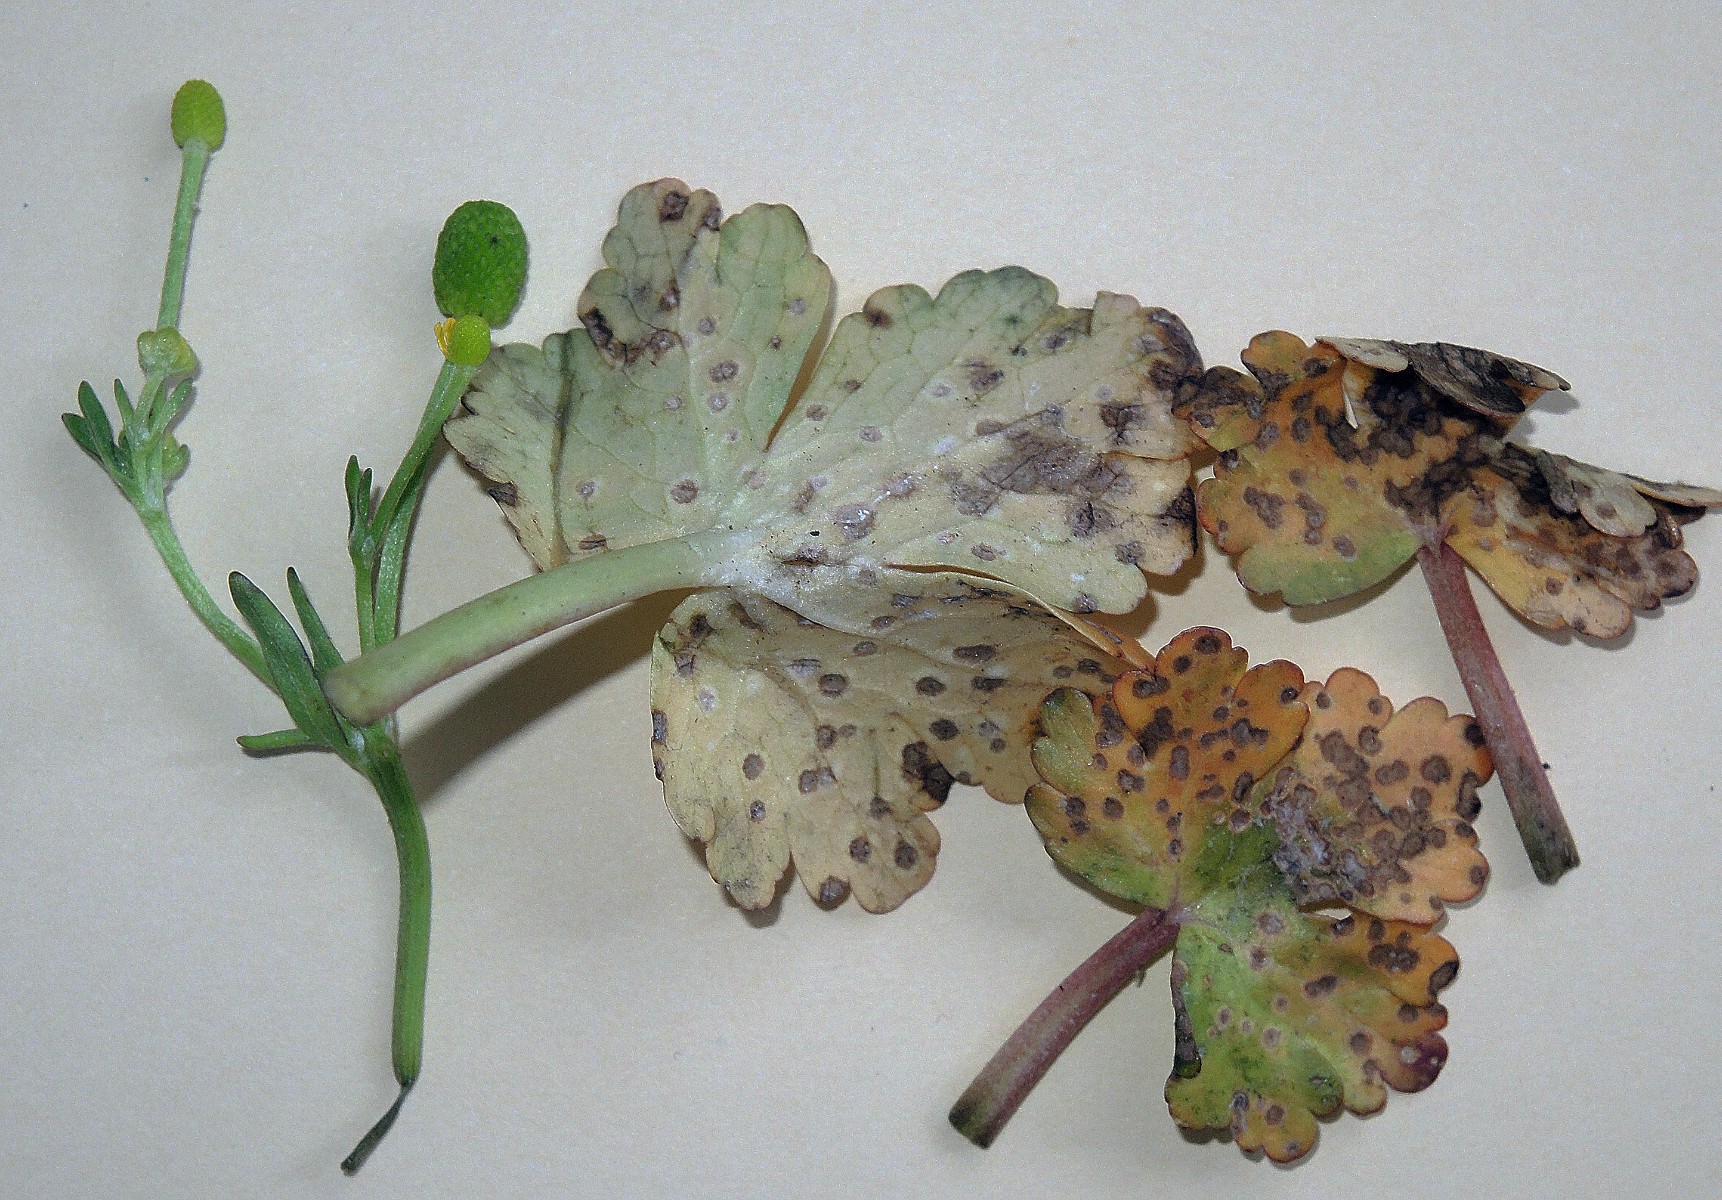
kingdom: Fungi
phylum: Basidiomycota
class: Exobasidiomycetes
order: Entylomatales
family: Entylomataceae
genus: Entyloma
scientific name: Entyloma ranunculi-scelerati
